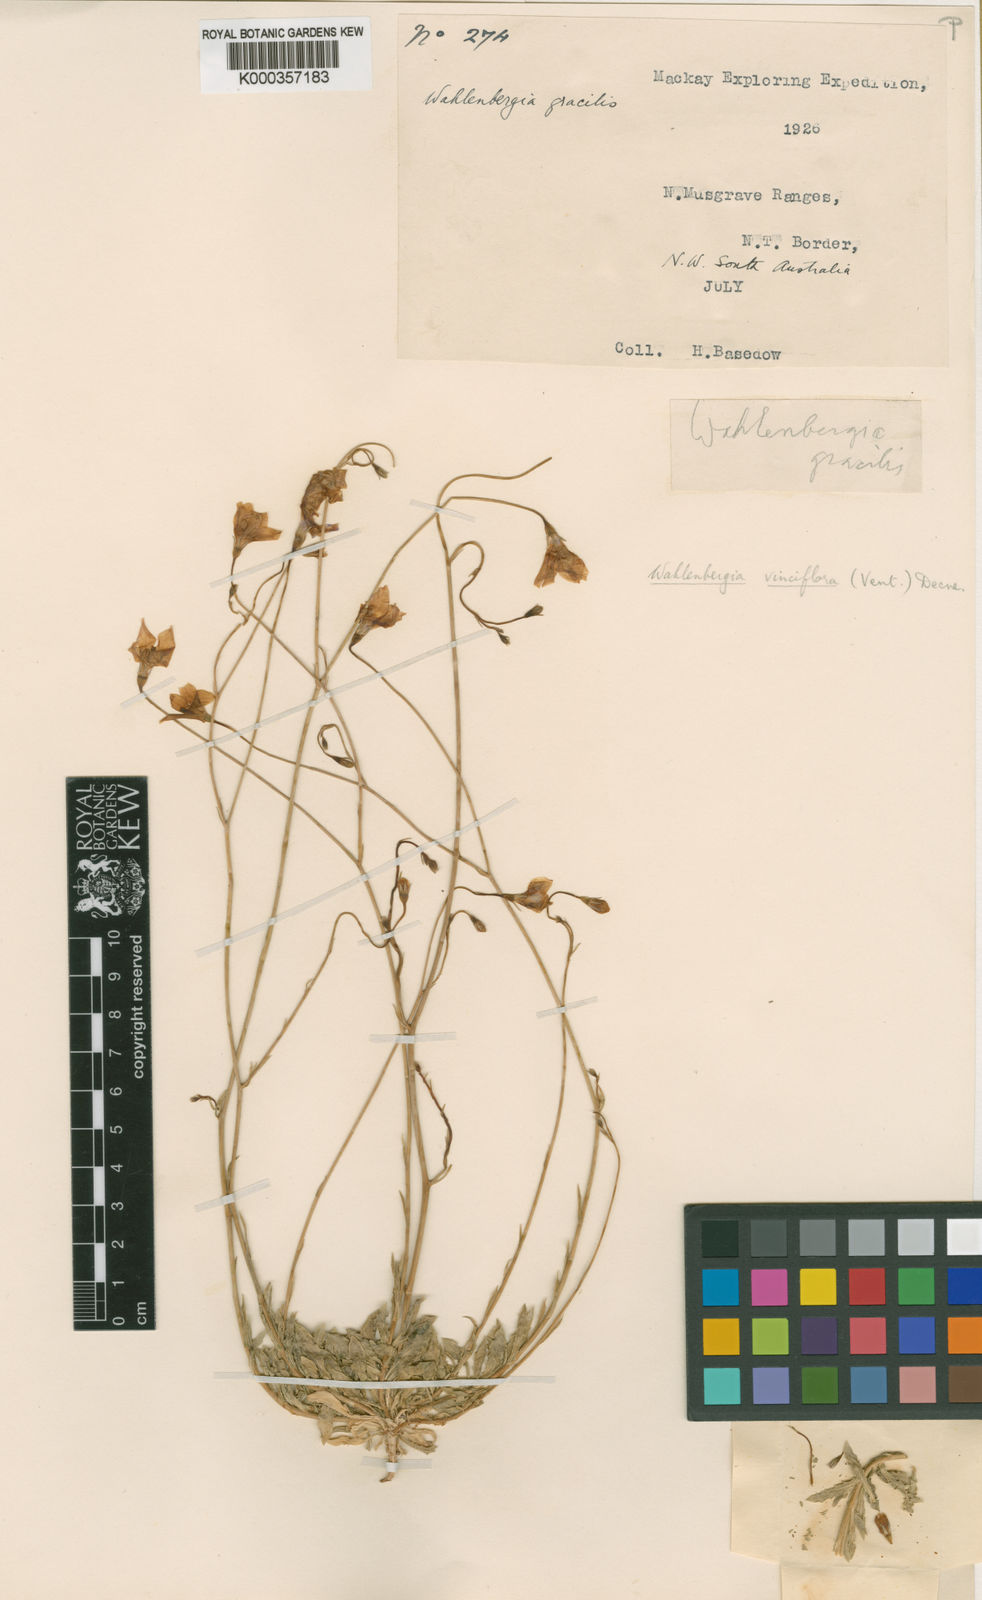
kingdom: Plantae
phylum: Tracheophyta
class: Magnoliopsida
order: Asterales
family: Campanulaceae
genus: Wahlenbergia
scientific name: Wahlenbergia
